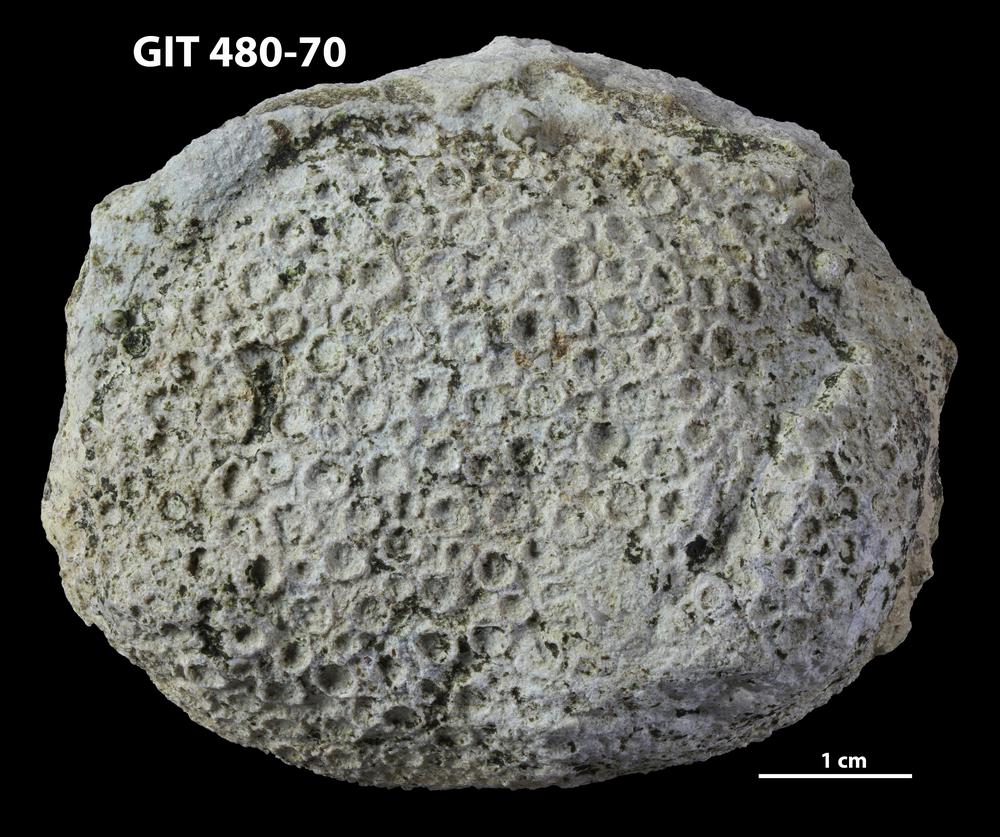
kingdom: Animalia
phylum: Xenacoelomorpha
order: Acoela
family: Proporidae
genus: Propora
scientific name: Propora
